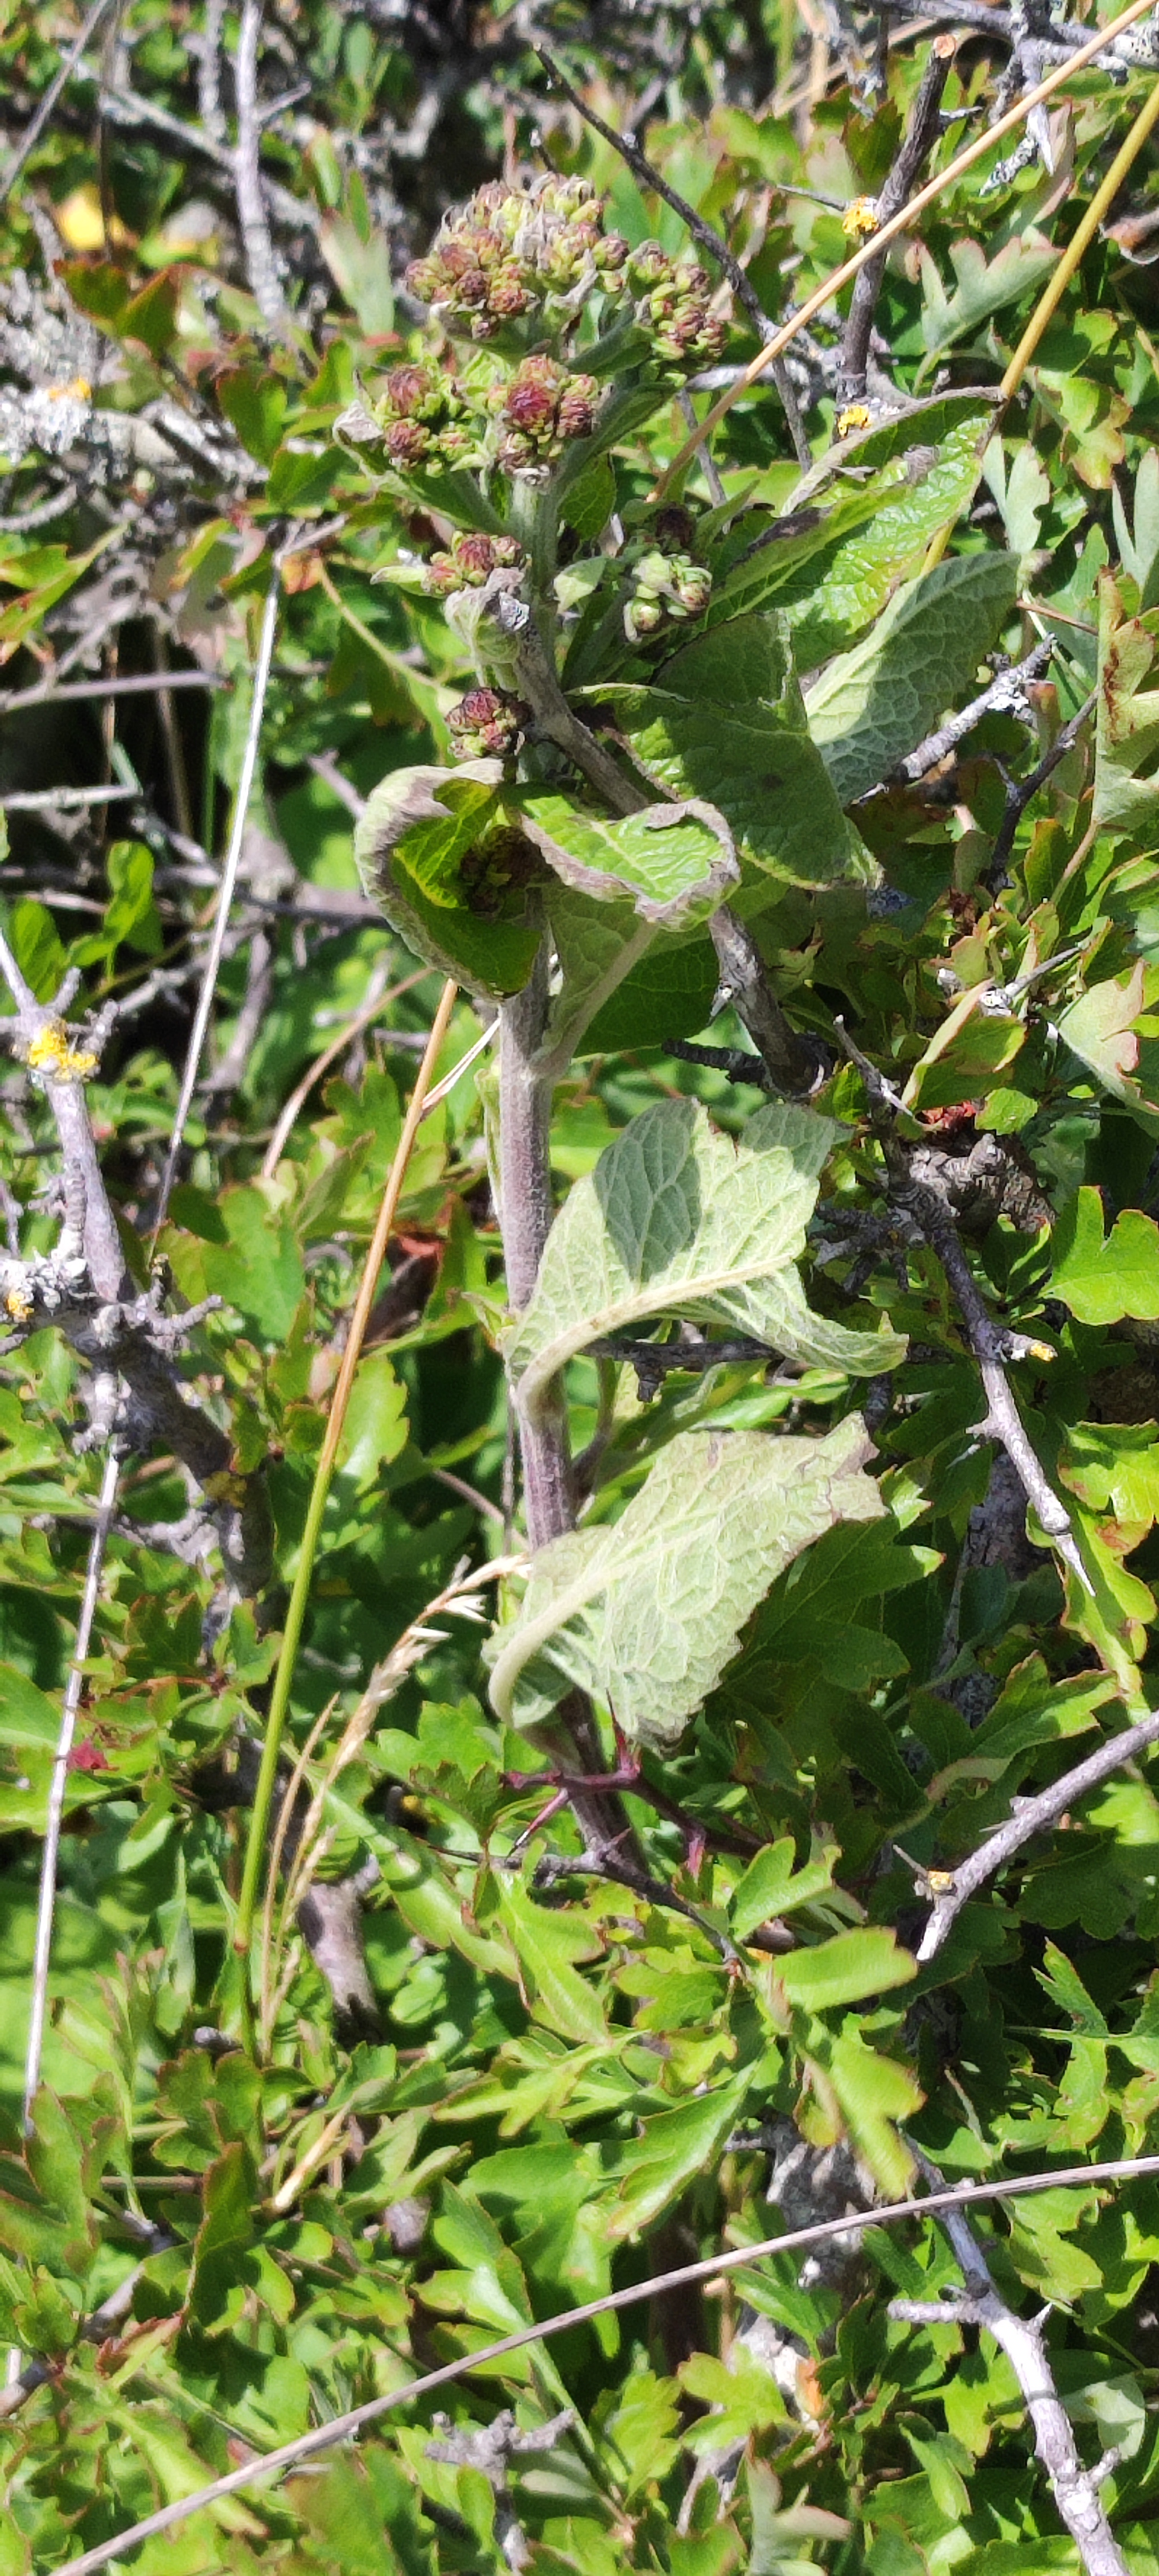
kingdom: Plantae
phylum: Tracheophyta
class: Magnoliopsida
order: Asterales
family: Asteraceae
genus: Pentanema
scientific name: Pentanema squarrosum
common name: Trekløft-alant
